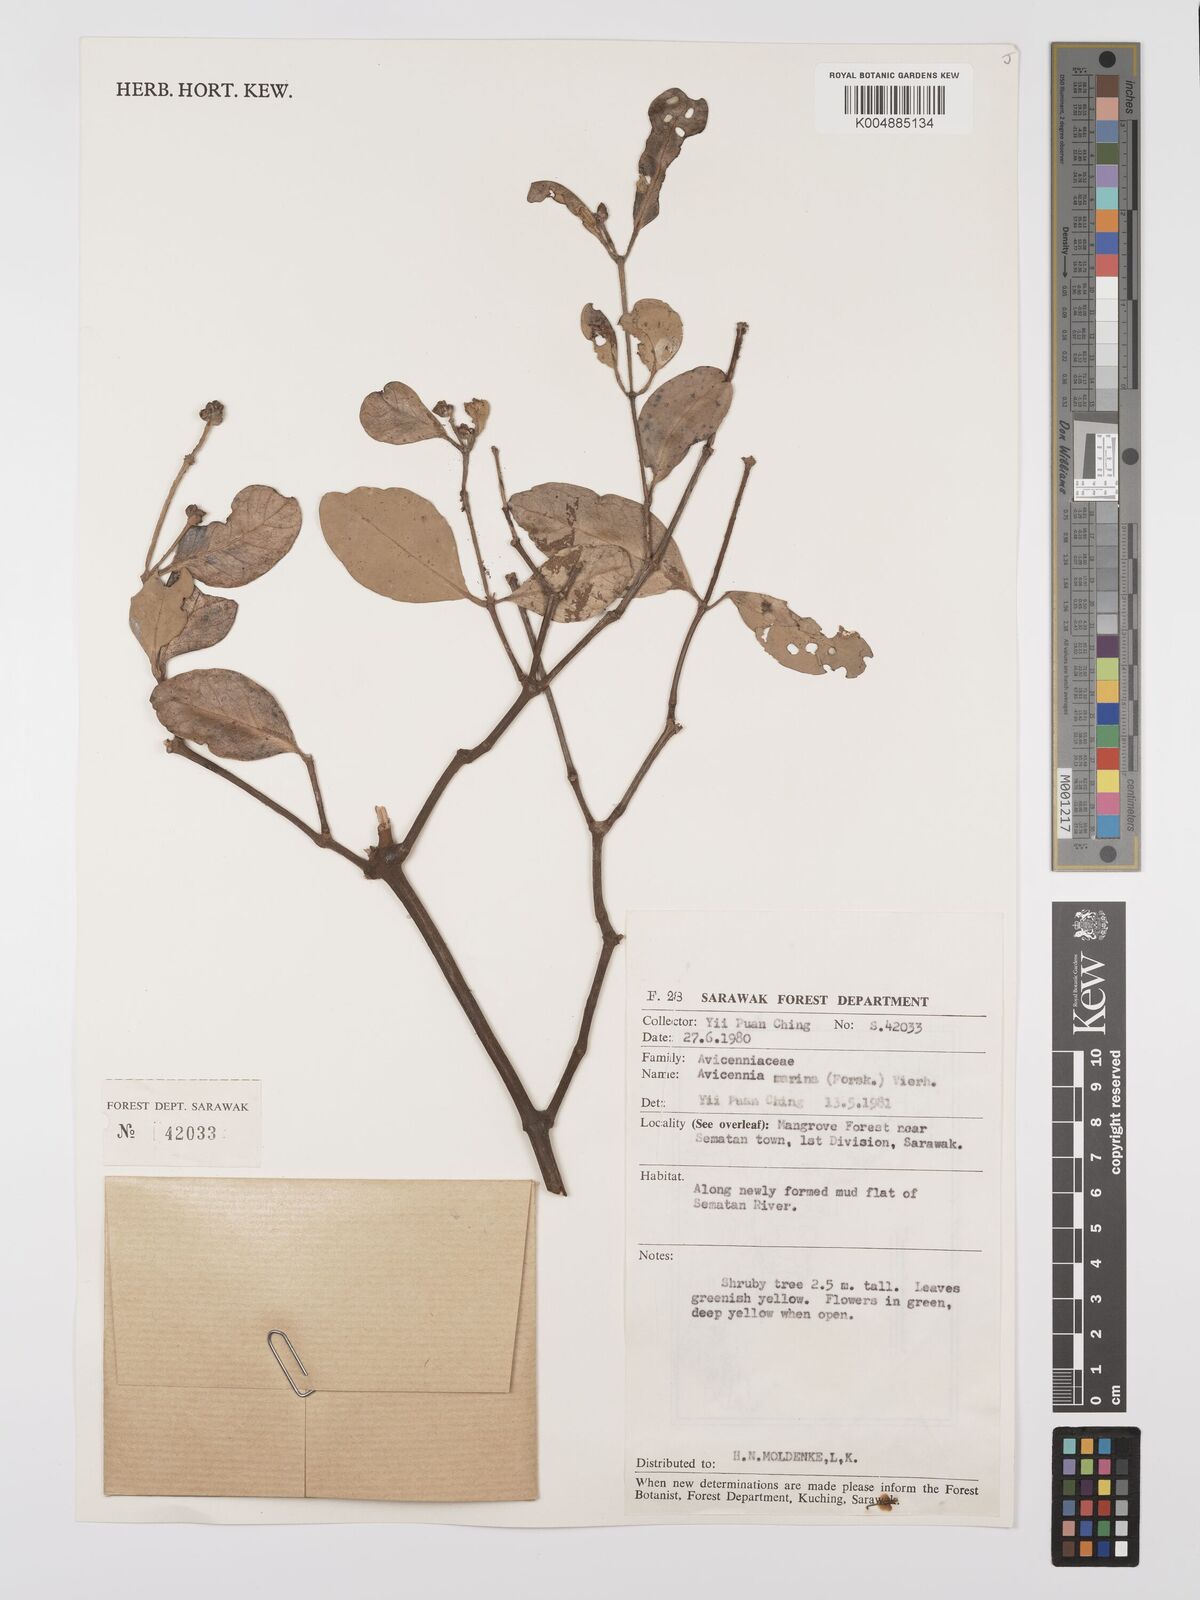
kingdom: Plantae
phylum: Tracheophyta
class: Magnoliopsida
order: Lamiales
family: Acanthaceae
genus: Avicennia
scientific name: Avicennia marina
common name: Gray mangrove
